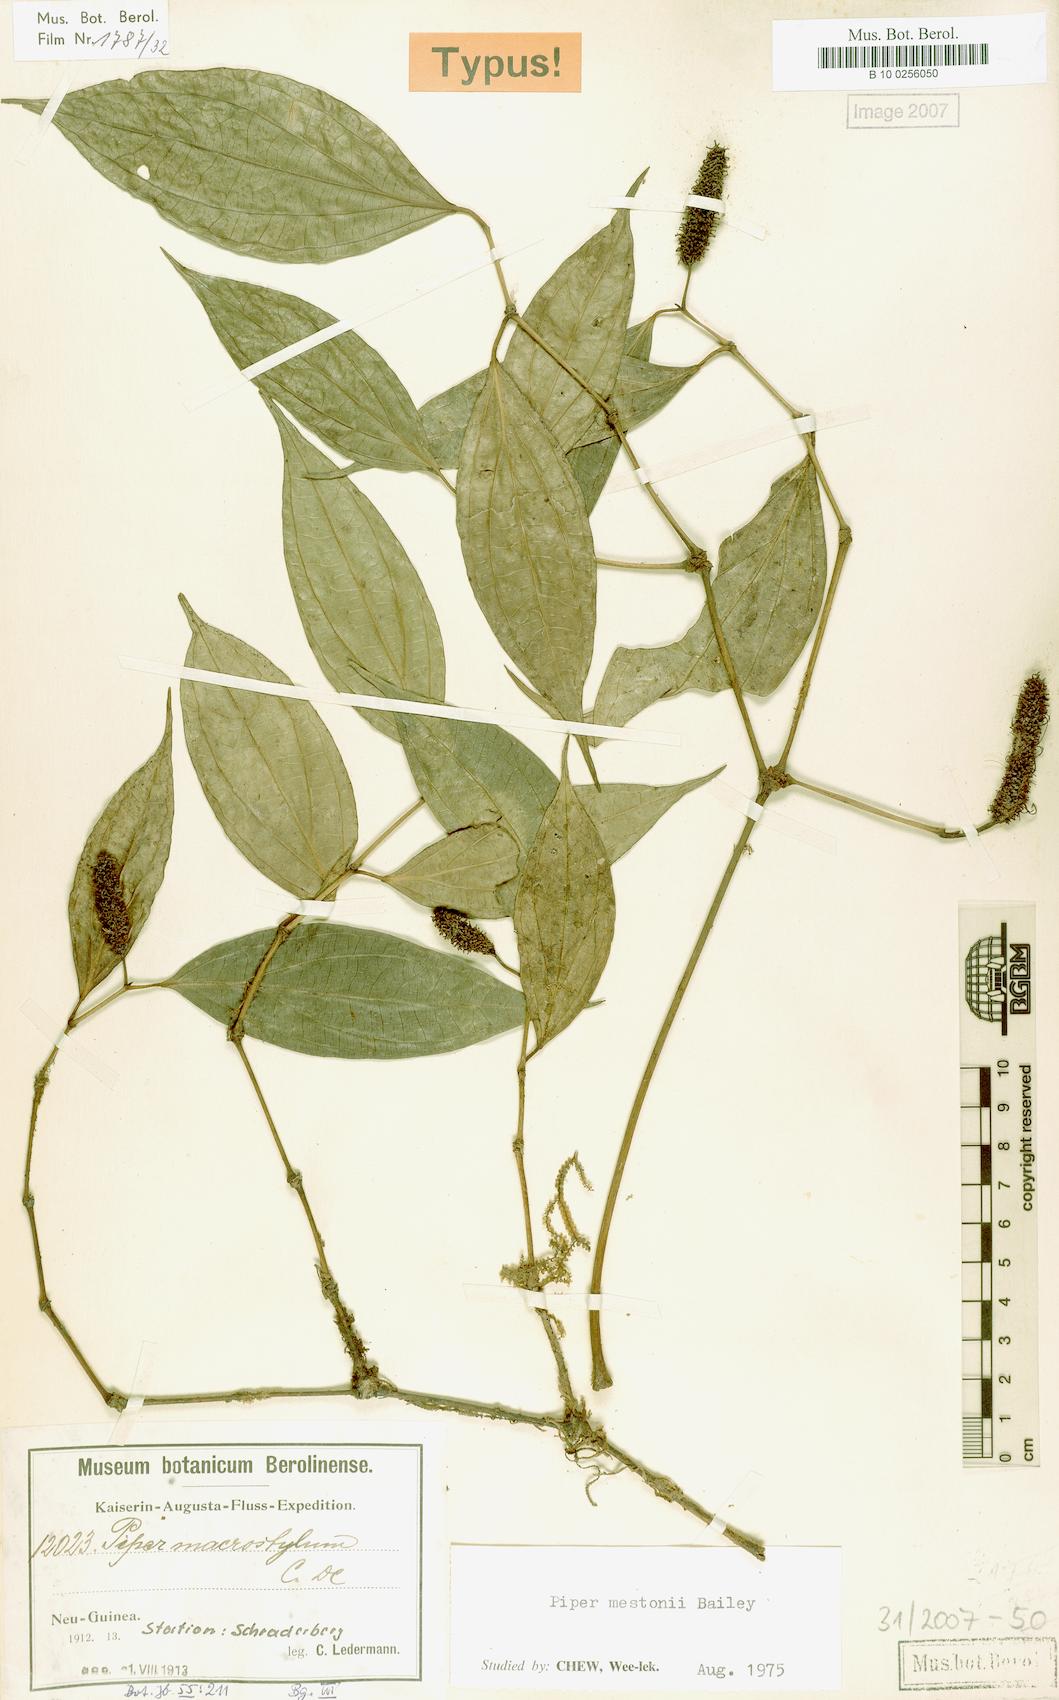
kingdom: Plantae
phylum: Tracheophyta
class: Magnoliopsida
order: Piperales
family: Piperaceae
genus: Piper
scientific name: Piper mestonii
